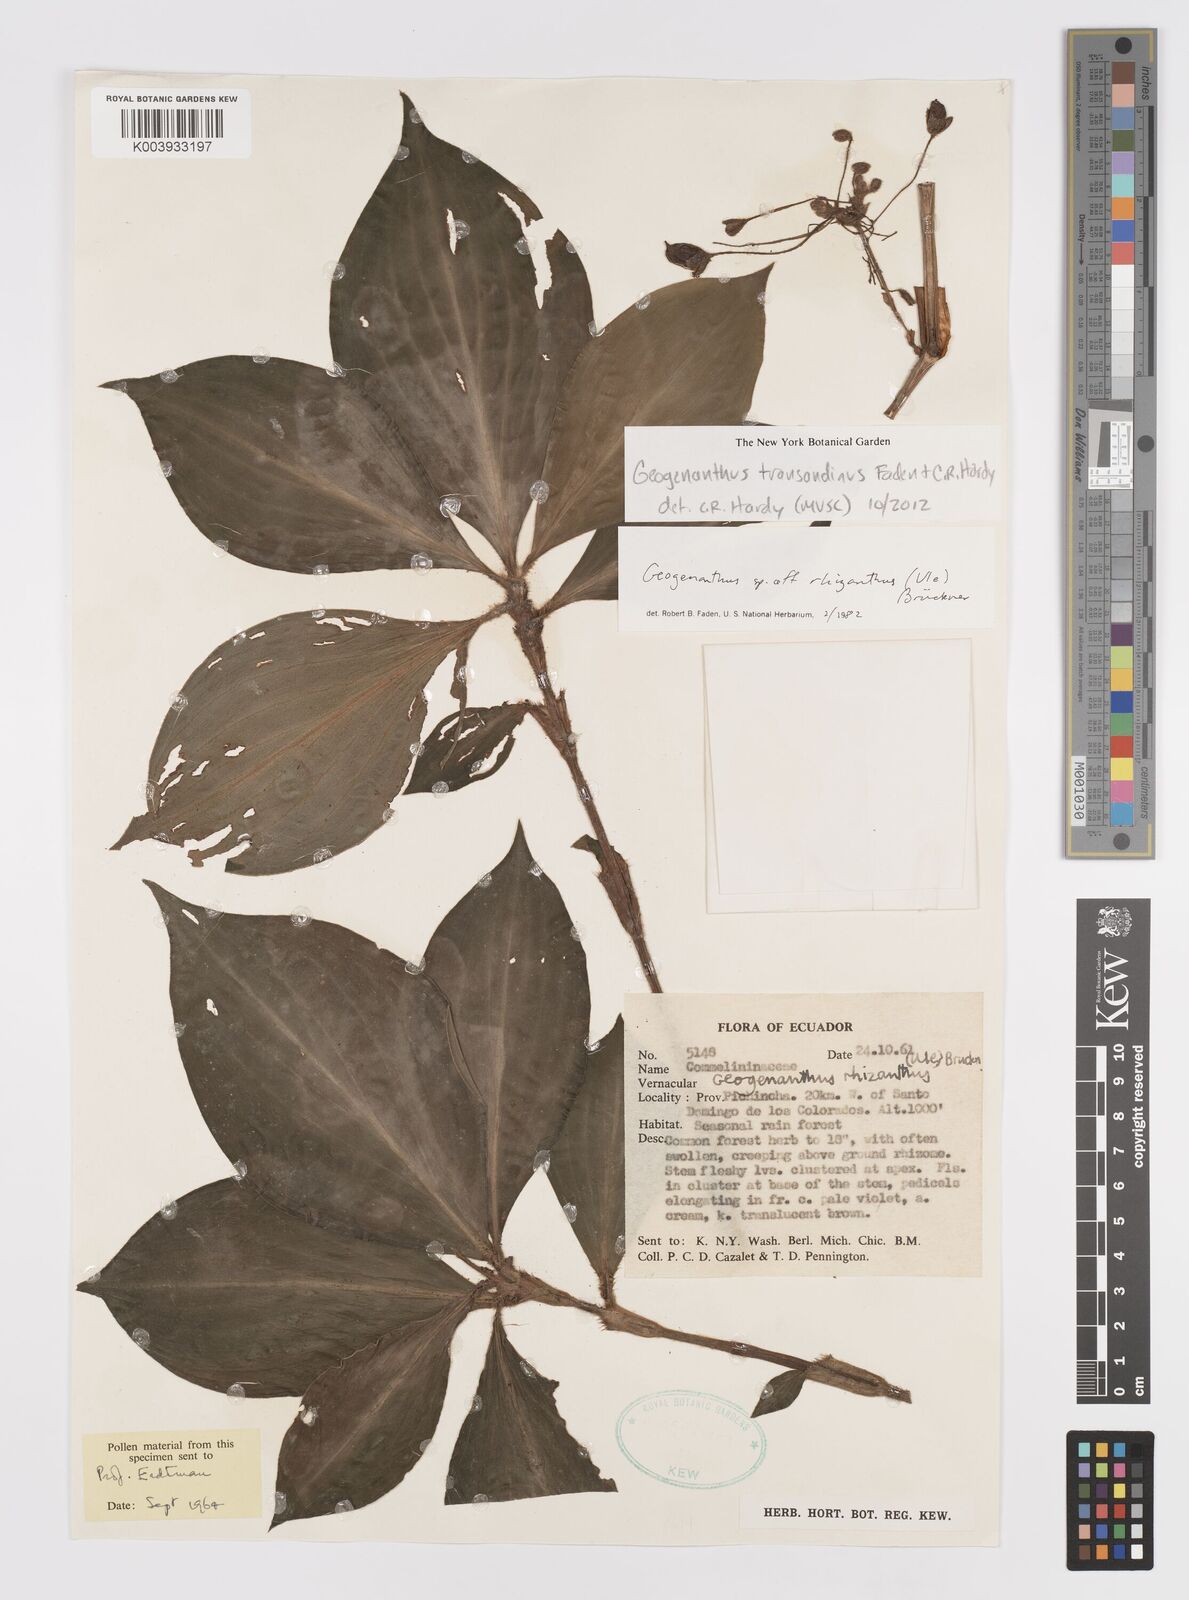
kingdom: Plantae
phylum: Tracheophyta
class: Liliopsida
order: Commelinales
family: Commelinaceae
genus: Geogenanthus
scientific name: Geogenanthus
